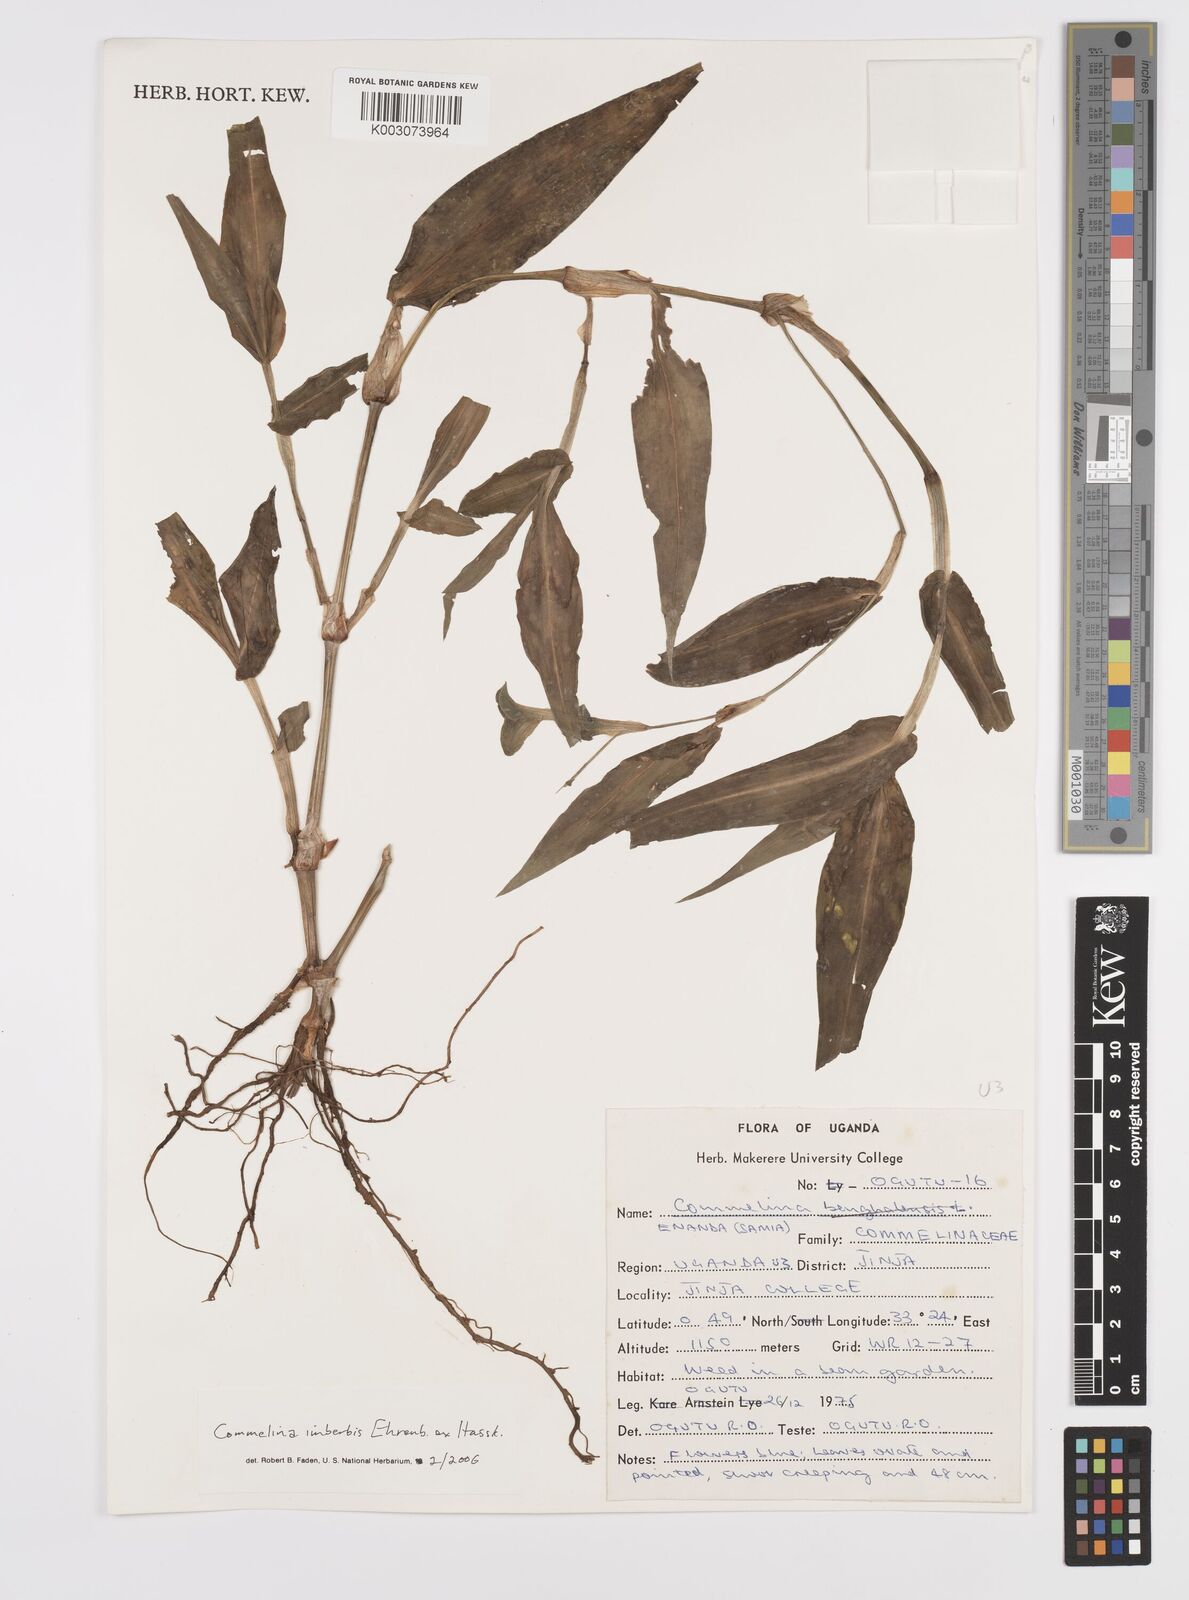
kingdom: Plantae
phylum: Tracheophyta
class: Liliopsida
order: Commelinales
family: Commelinaceae
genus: Commelina
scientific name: Commelina imberbis
